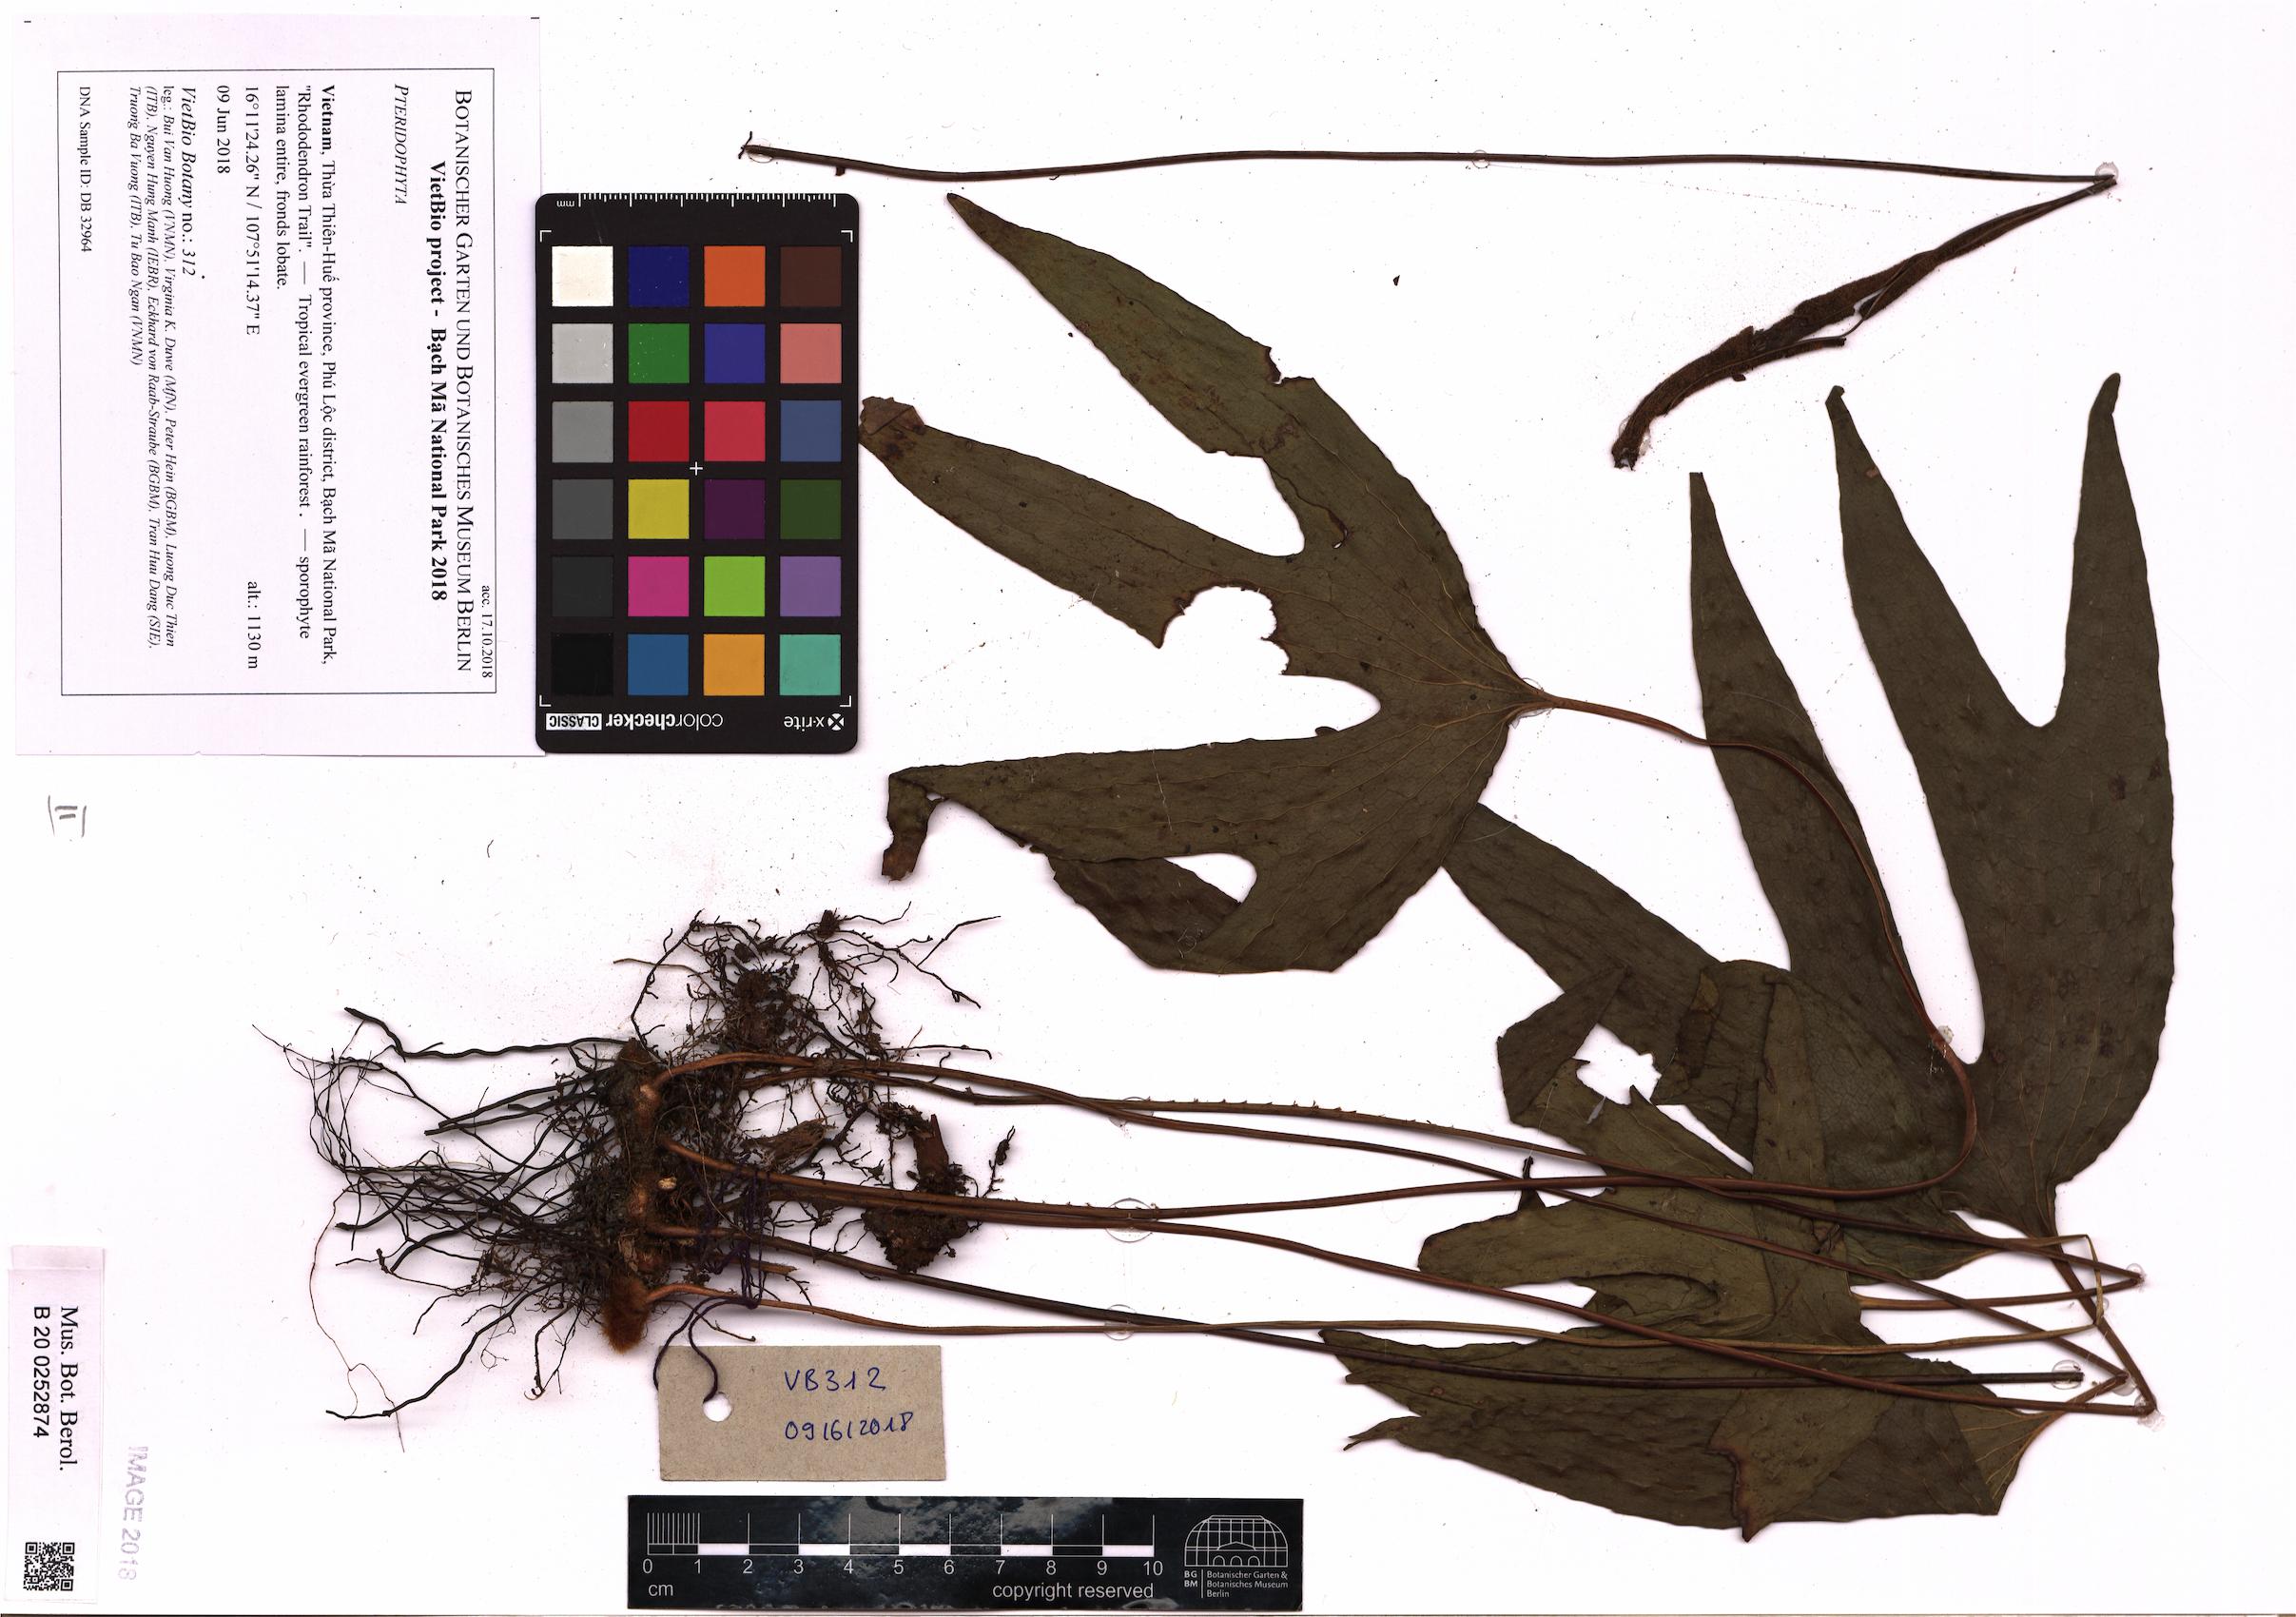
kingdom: Plantae
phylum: Tracheophyta
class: Polypodiopsida
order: Gleicheniales
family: Dipteridaceae
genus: Cheiropleuria
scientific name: Cheiropleuria bicuspis
